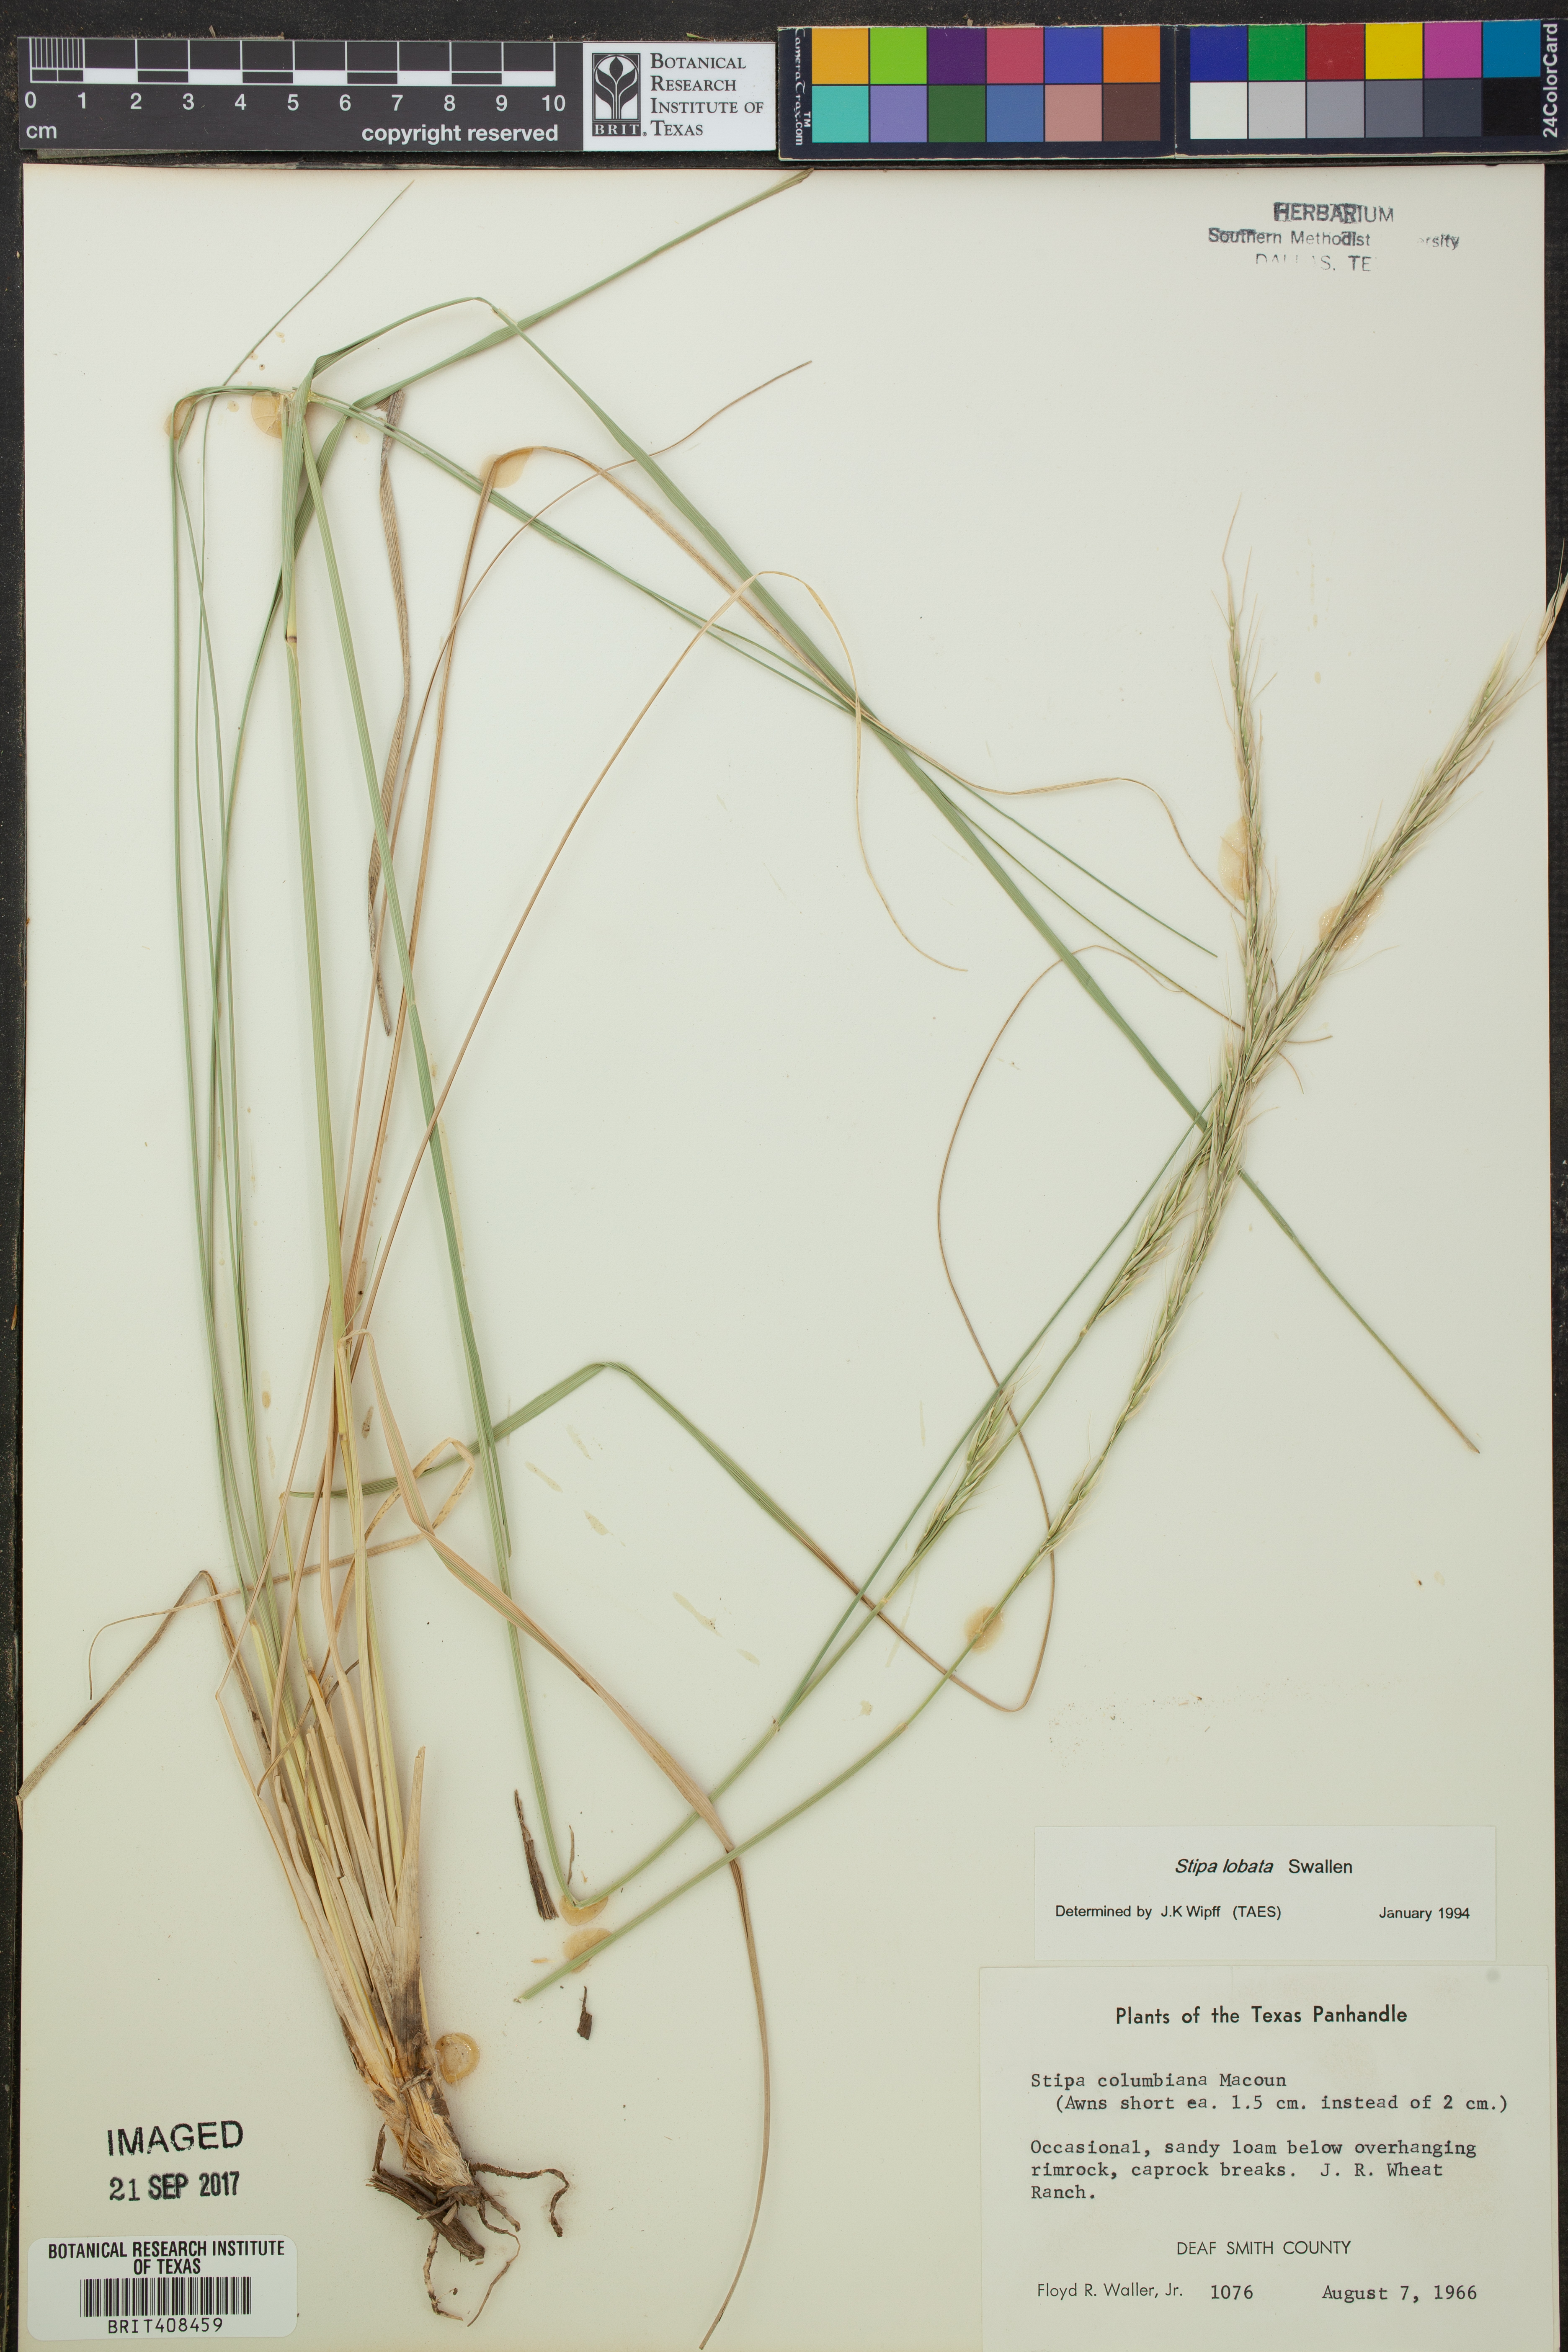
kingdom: Plantae
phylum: Tracheophyta
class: Liliopsida
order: Poales
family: Poaceae
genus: Eriocoma
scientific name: Eriocoma lobata
